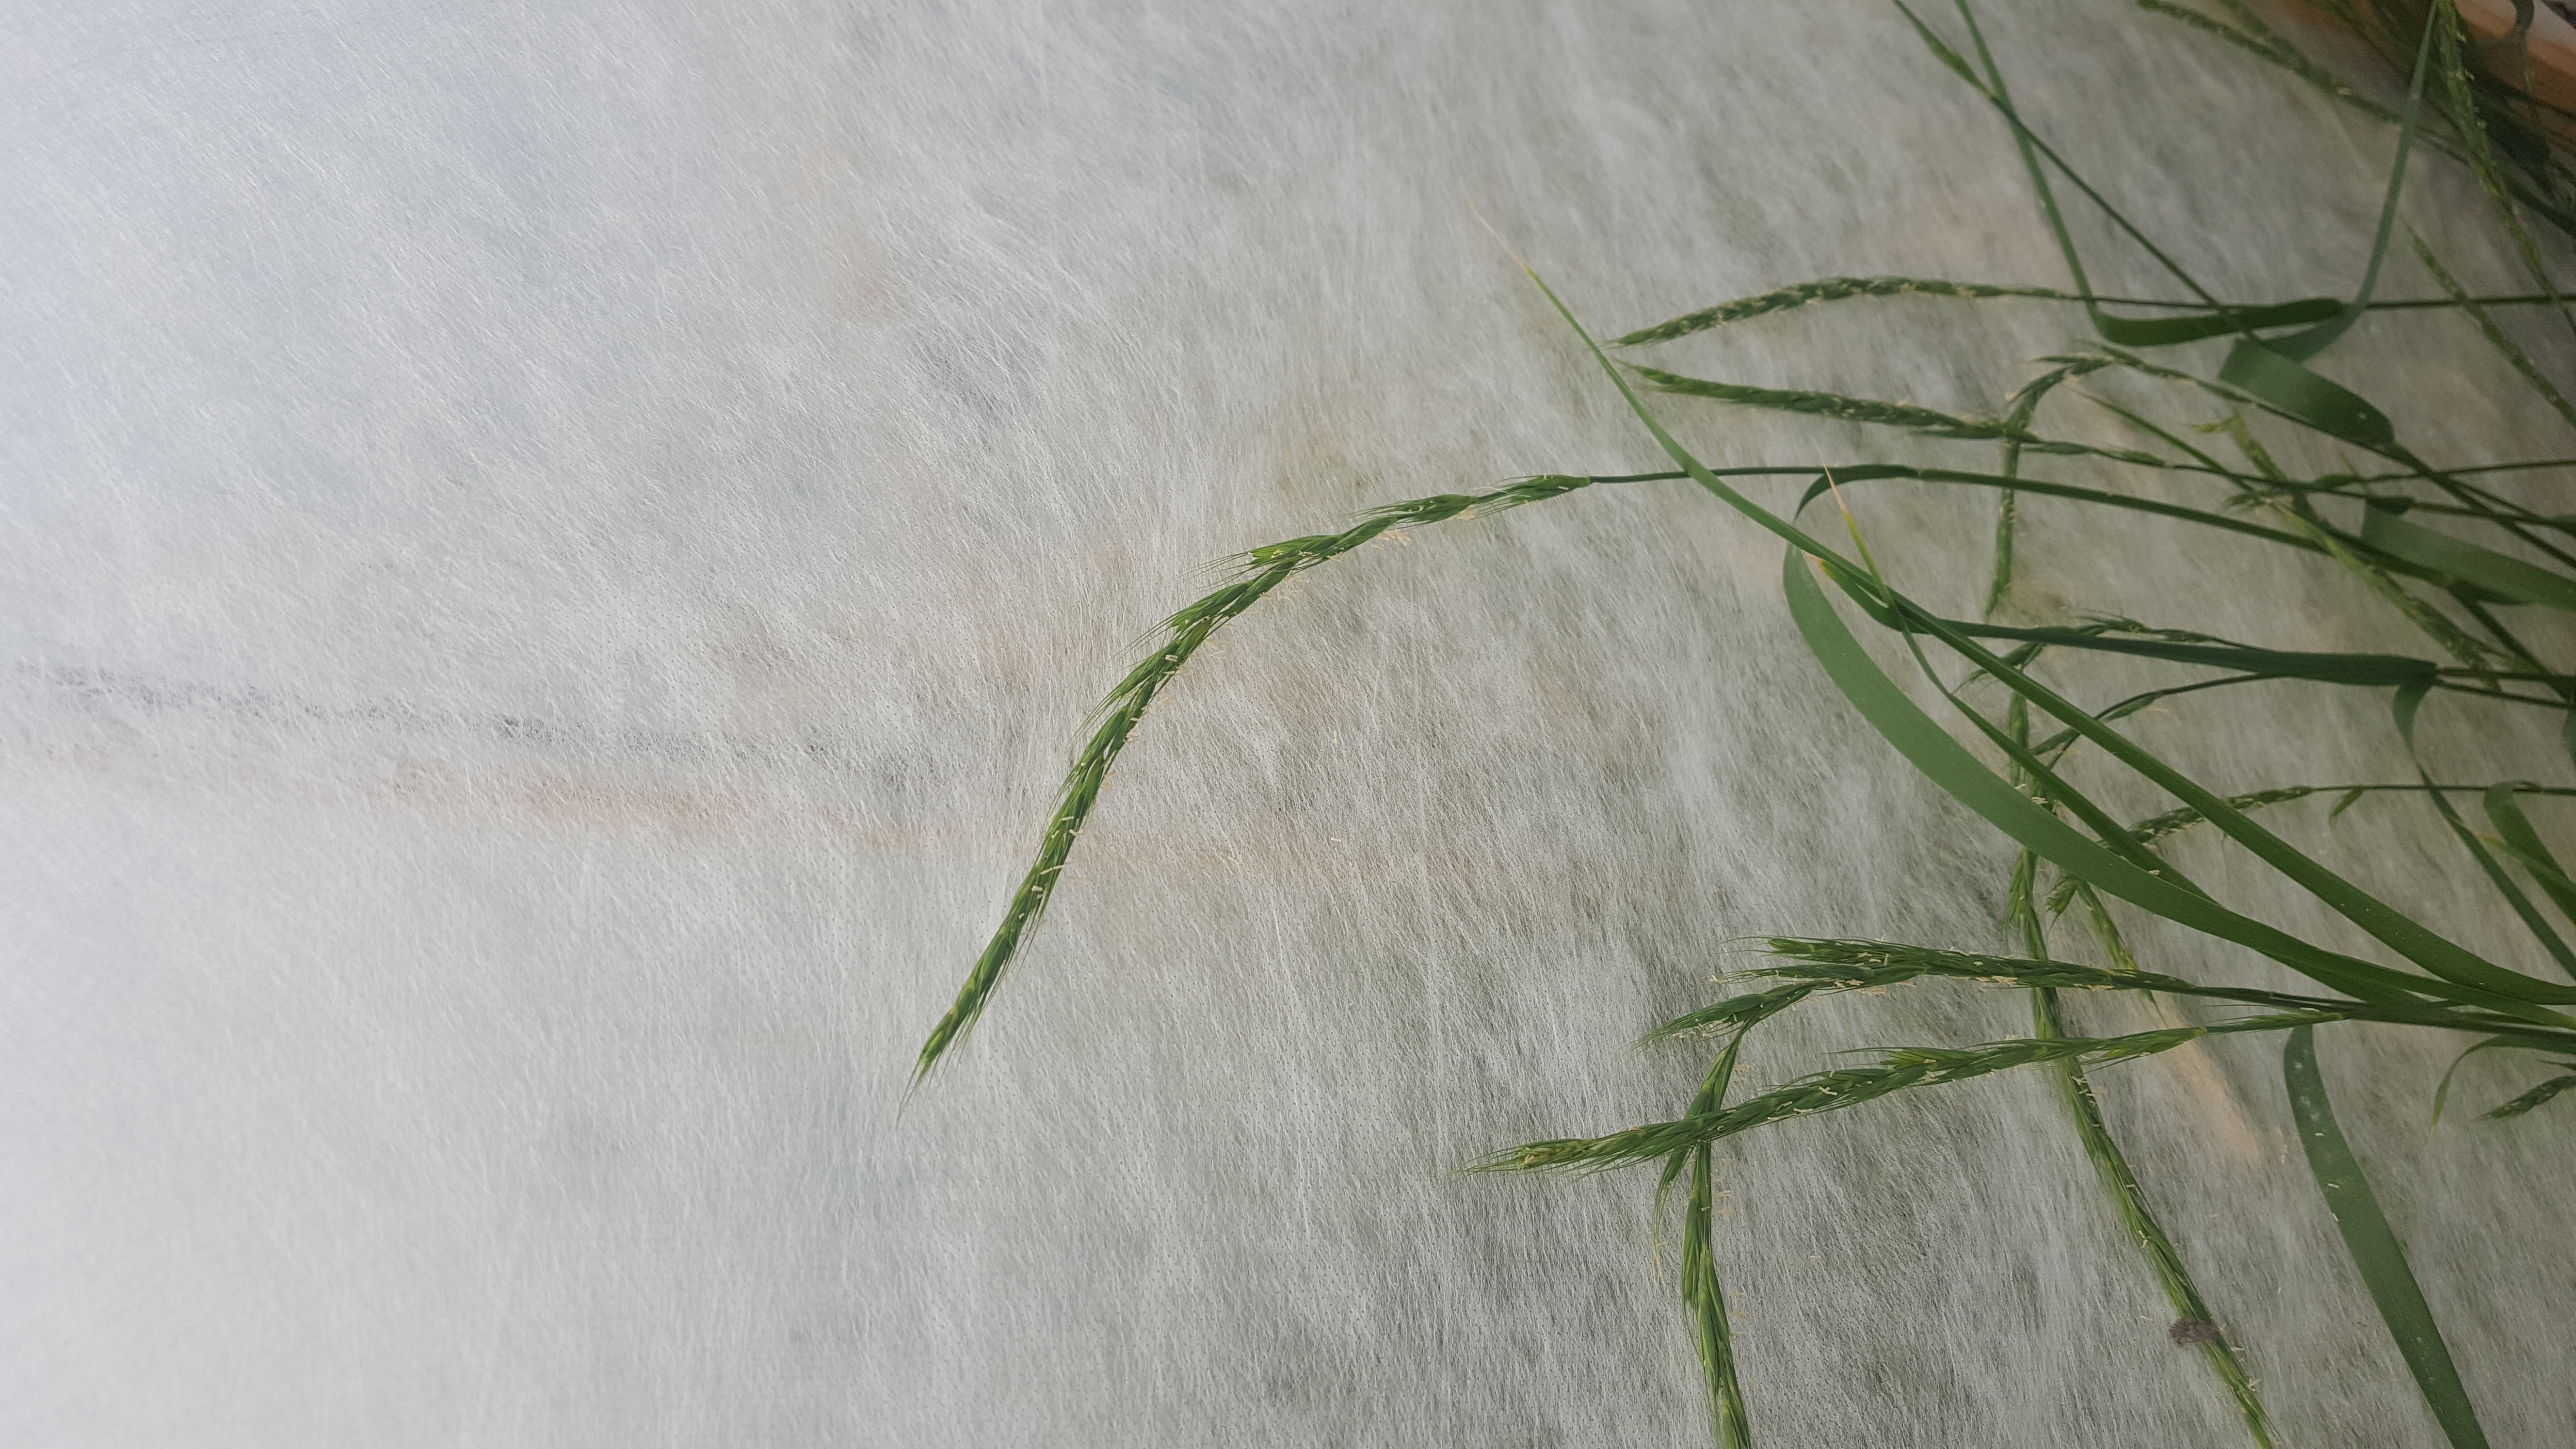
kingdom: Plantae
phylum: Tracheophyta
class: Liliopsida
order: Poales
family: Poaceae
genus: Elymus
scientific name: Elymus antiquus
